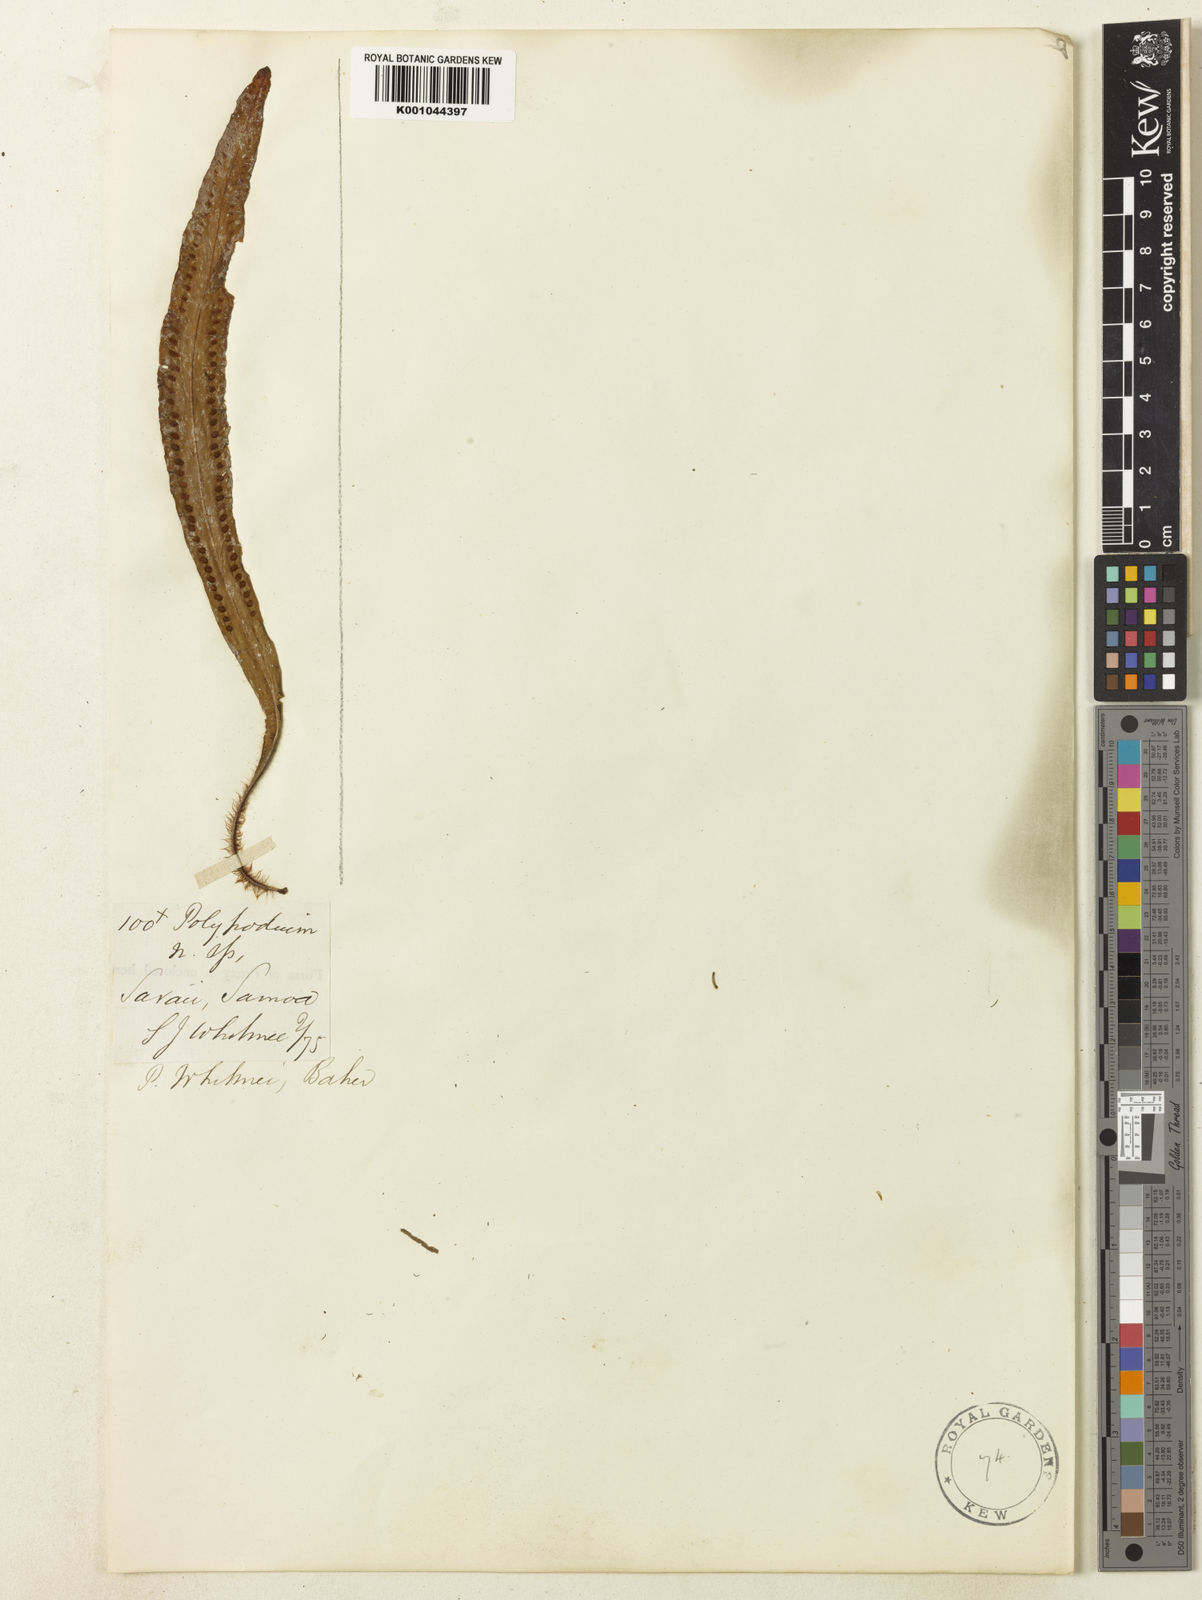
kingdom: Plantae
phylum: Tracheophyta
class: Polypodiopsida
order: Polypodiales
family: Polypodiaceae
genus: Oreogrammitis
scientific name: Oreogrammitis whitmeei
